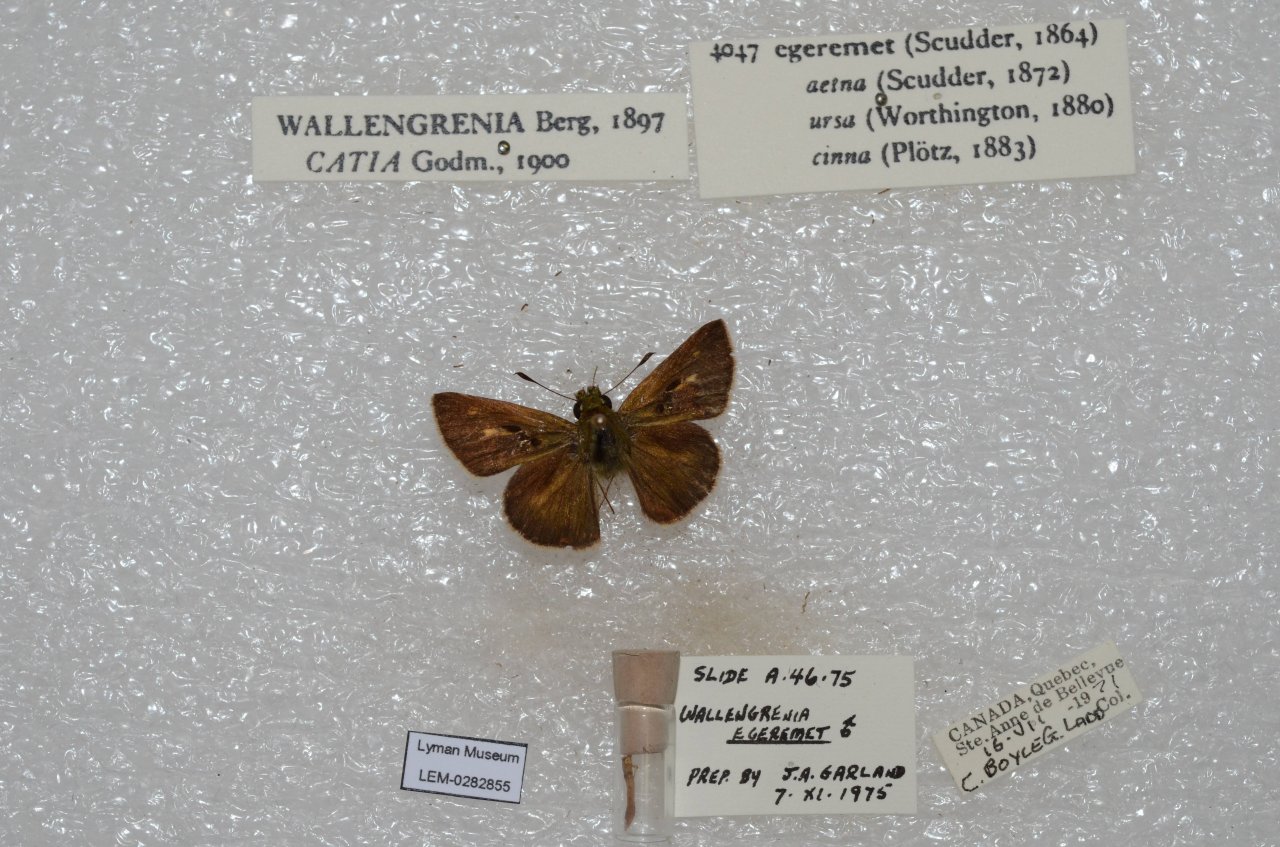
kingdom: Animalia
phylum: Arthropoda
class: Insecta
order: Lepidoptera
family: Hesperiidae
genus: Polites
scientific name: Polites egeremet
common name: Northern Broken-Dash
